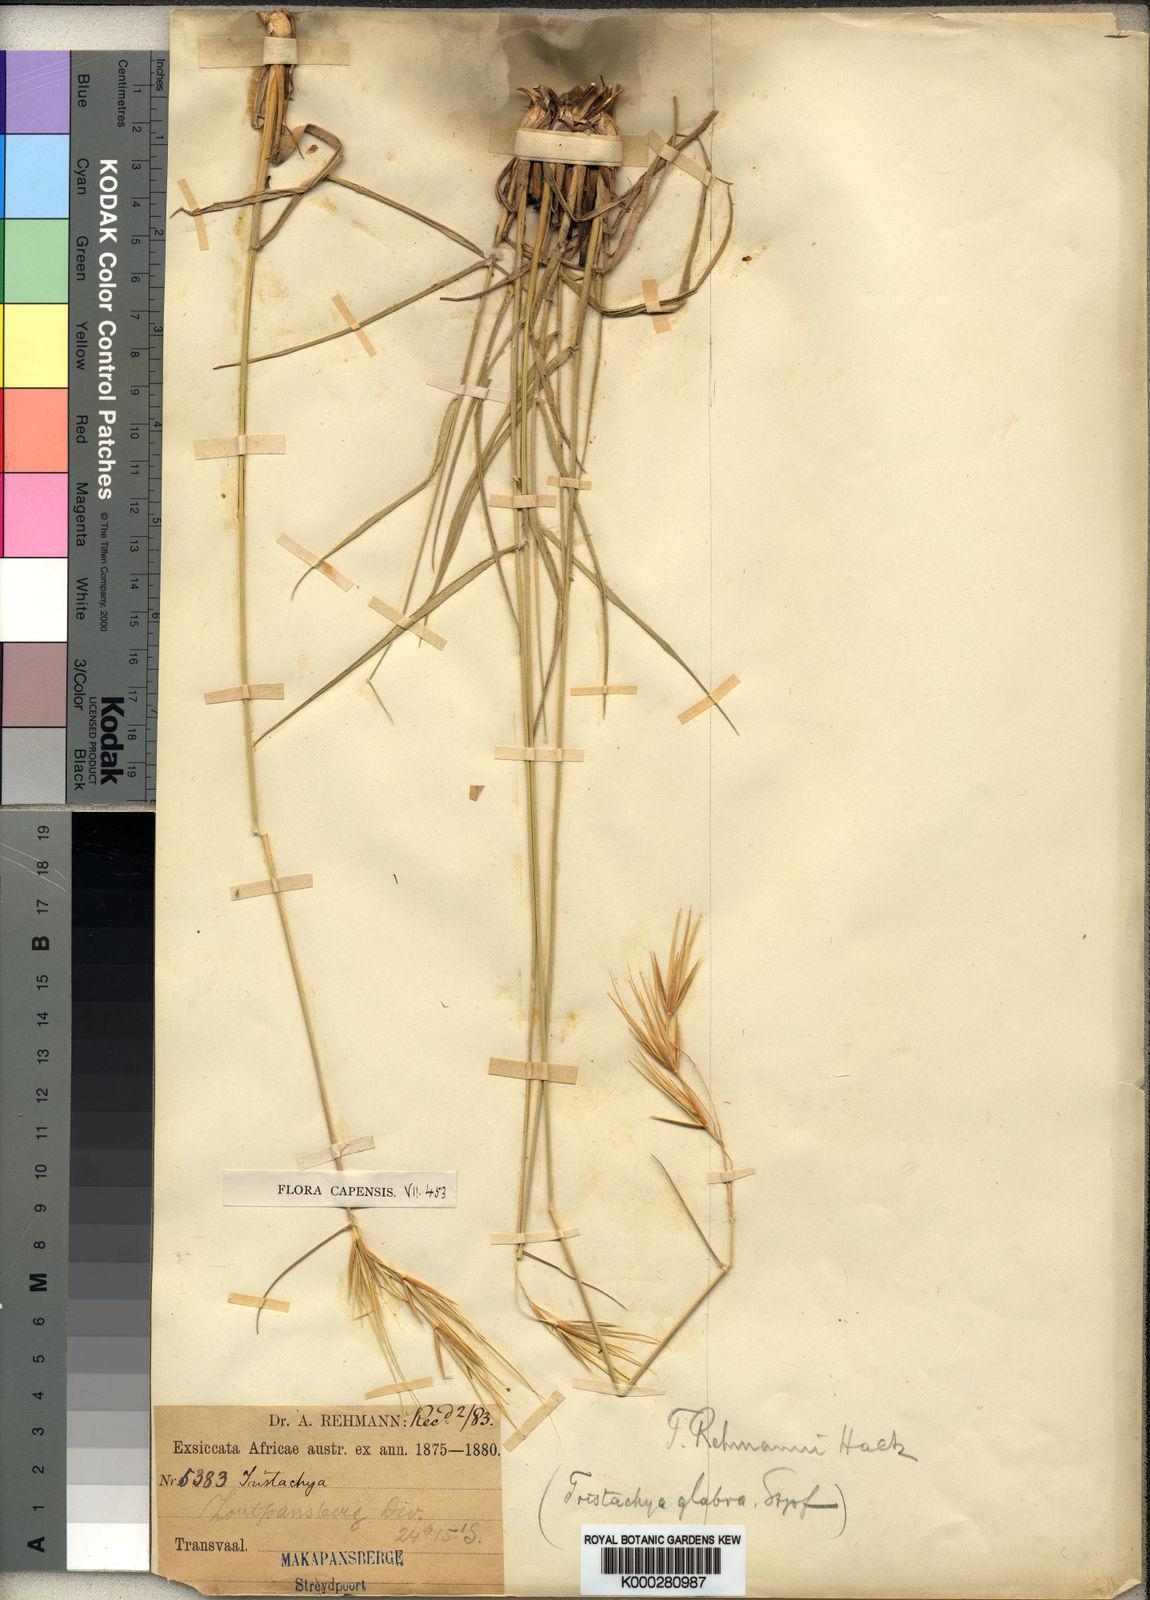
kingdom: Plantae
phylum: Tracheophyta
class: Liliopsida
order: Poales
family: Poaceae
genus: Tristachya
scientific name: Tristachya rehmannii
